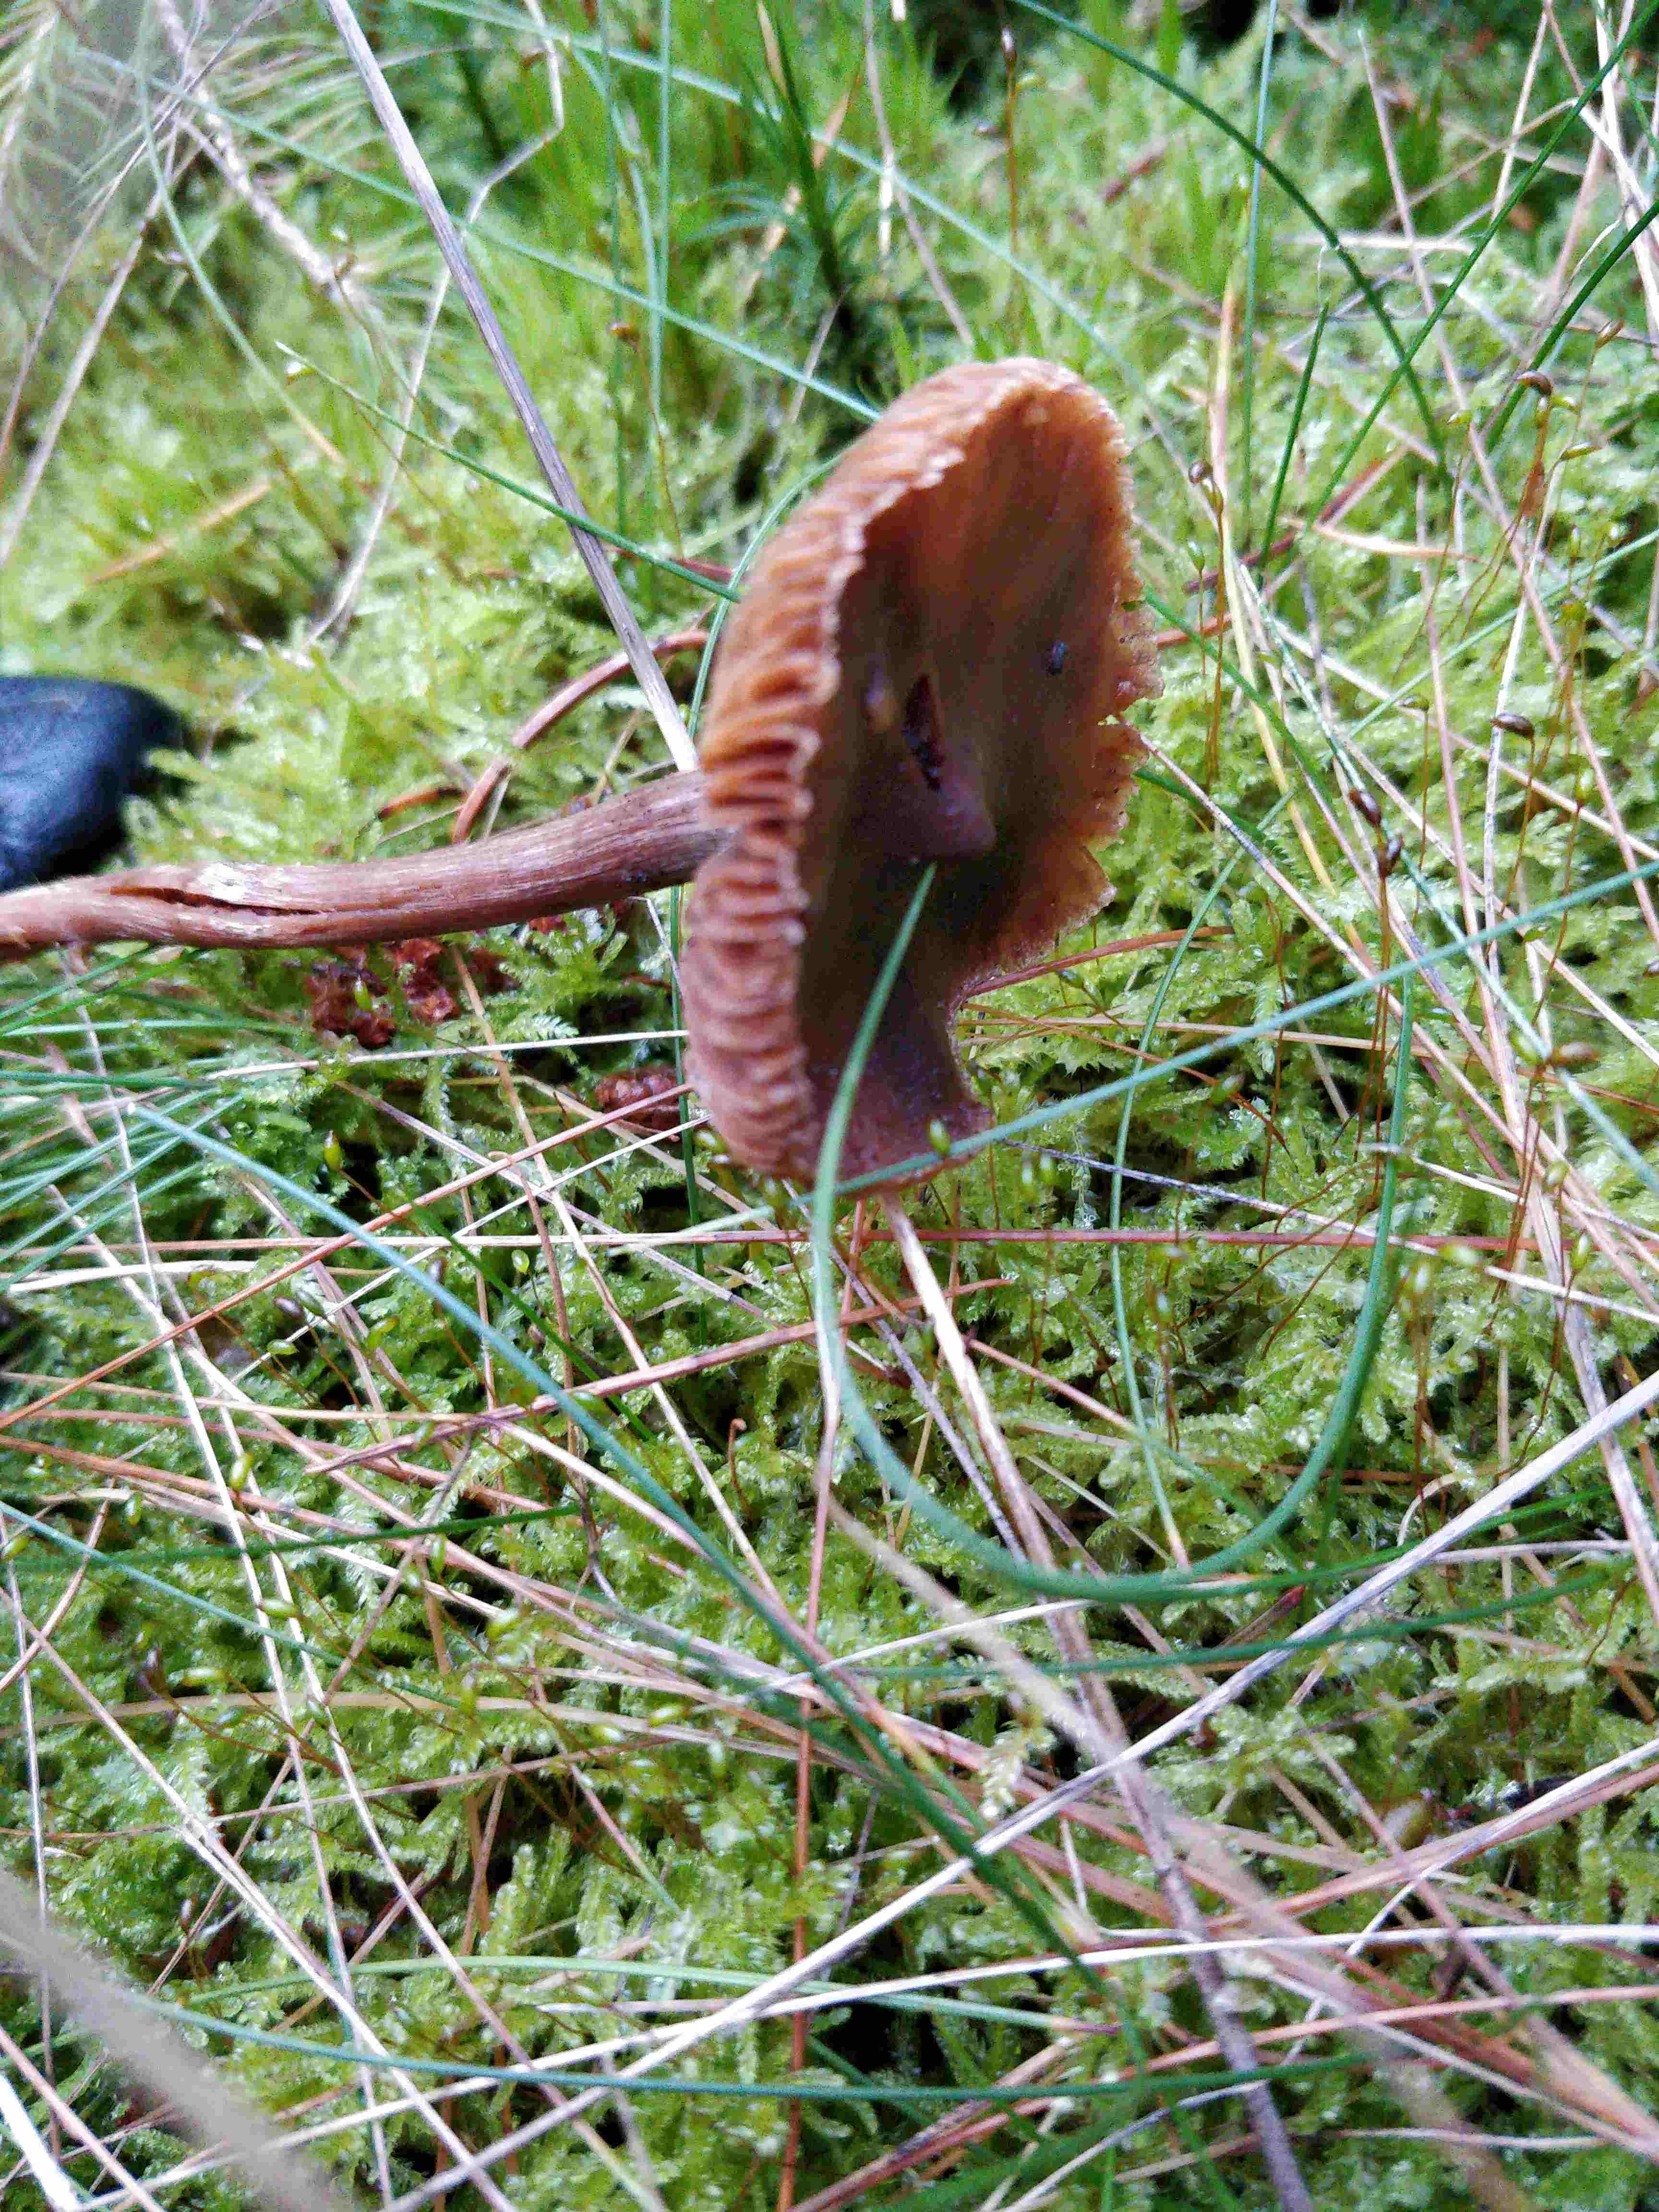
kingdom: Fungi
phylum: Basidiomycota
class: Agaricomycetes
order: Agaricales
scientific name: Agaricales
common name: champignonordenen
